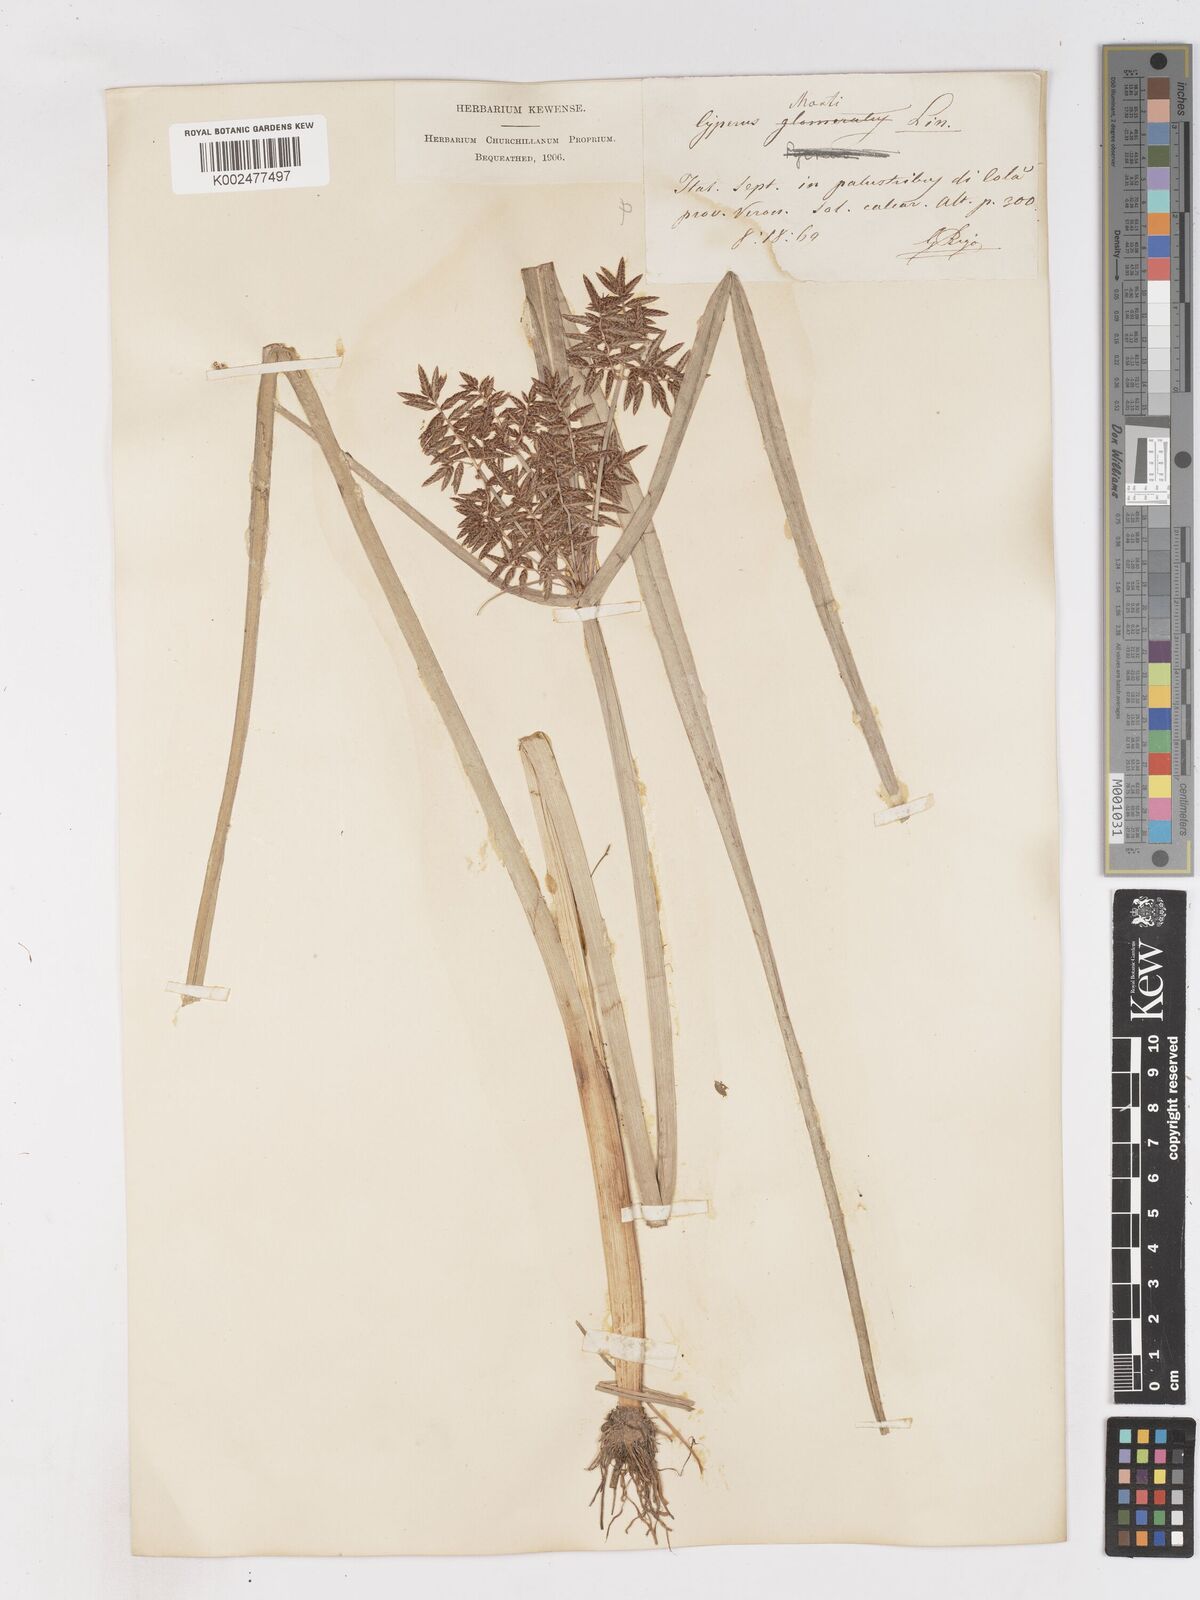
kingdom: Plantae
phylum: Tracheophyta
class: Liliopsida
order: Poales
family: Cyperaceae
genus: Cyperus
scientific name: Cyperus serotinus
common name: Tidalmarsh flatsedge
